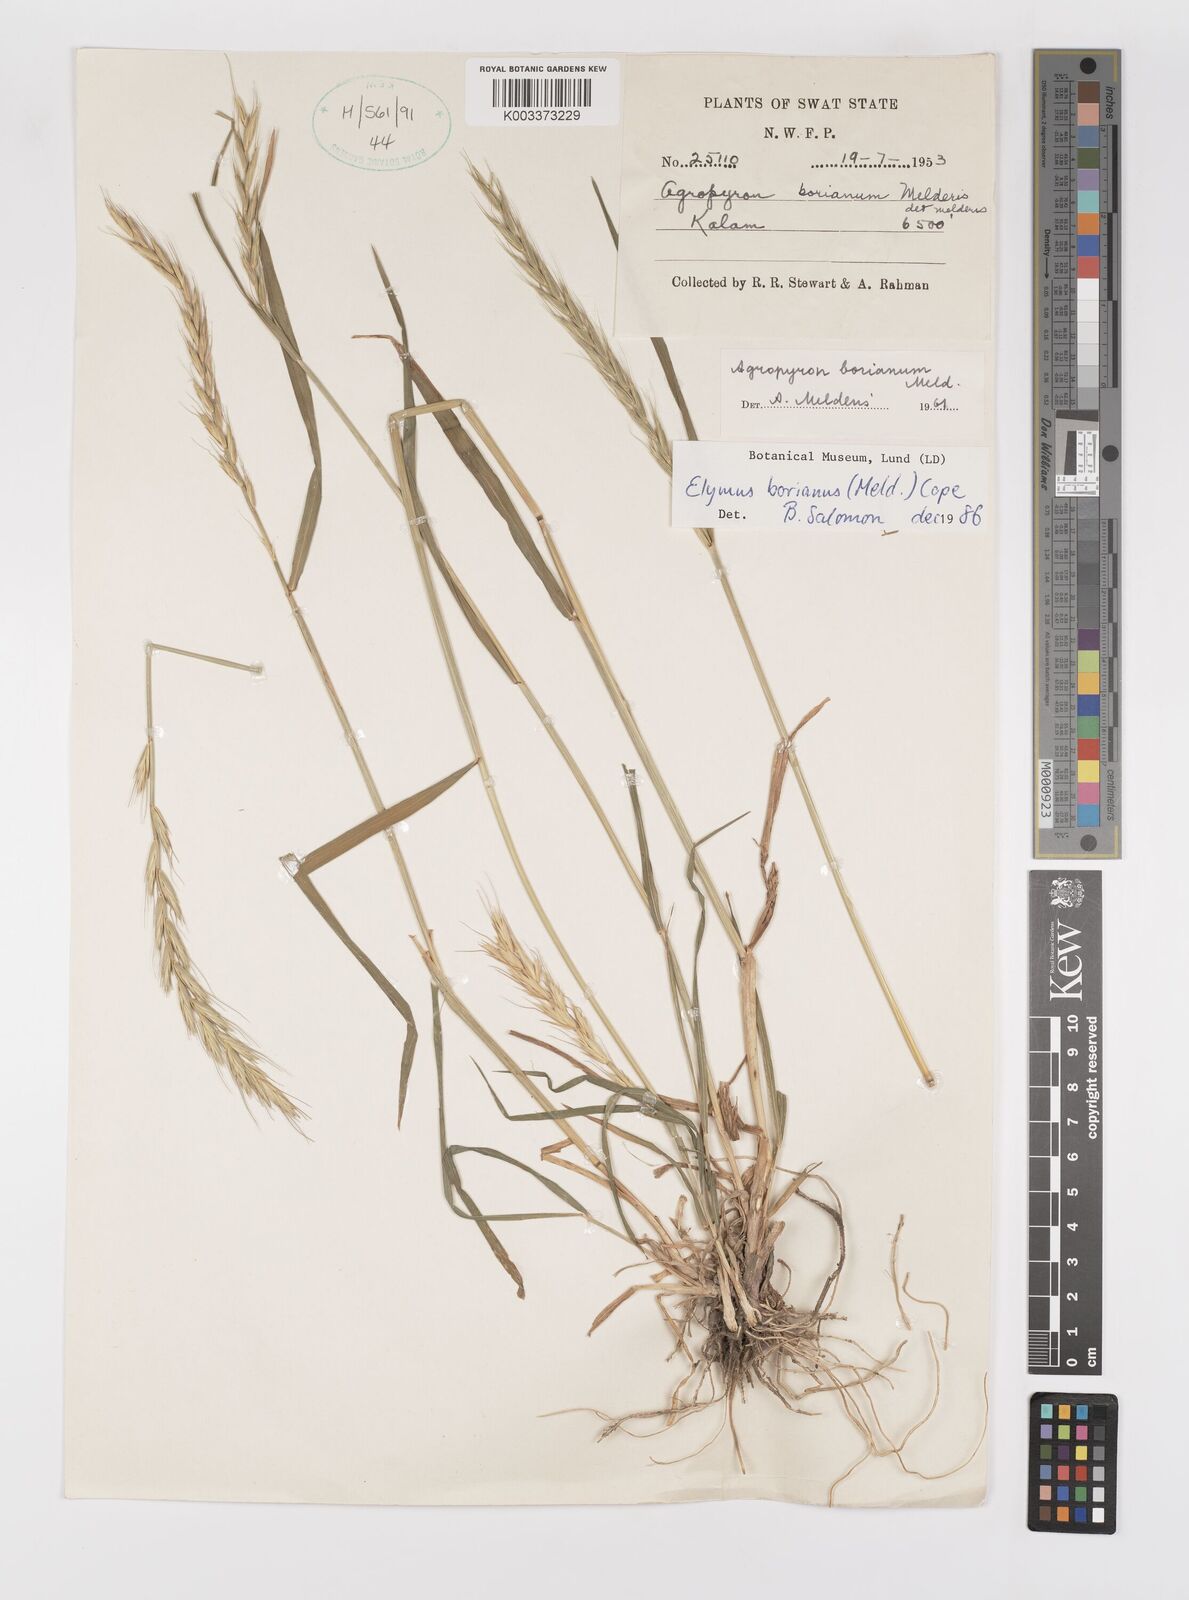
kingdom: Plantae
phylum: Tracheophyta
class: Liliopsida
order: Poales
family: Poaceae
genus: Elymus
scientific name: Elymus borianus
